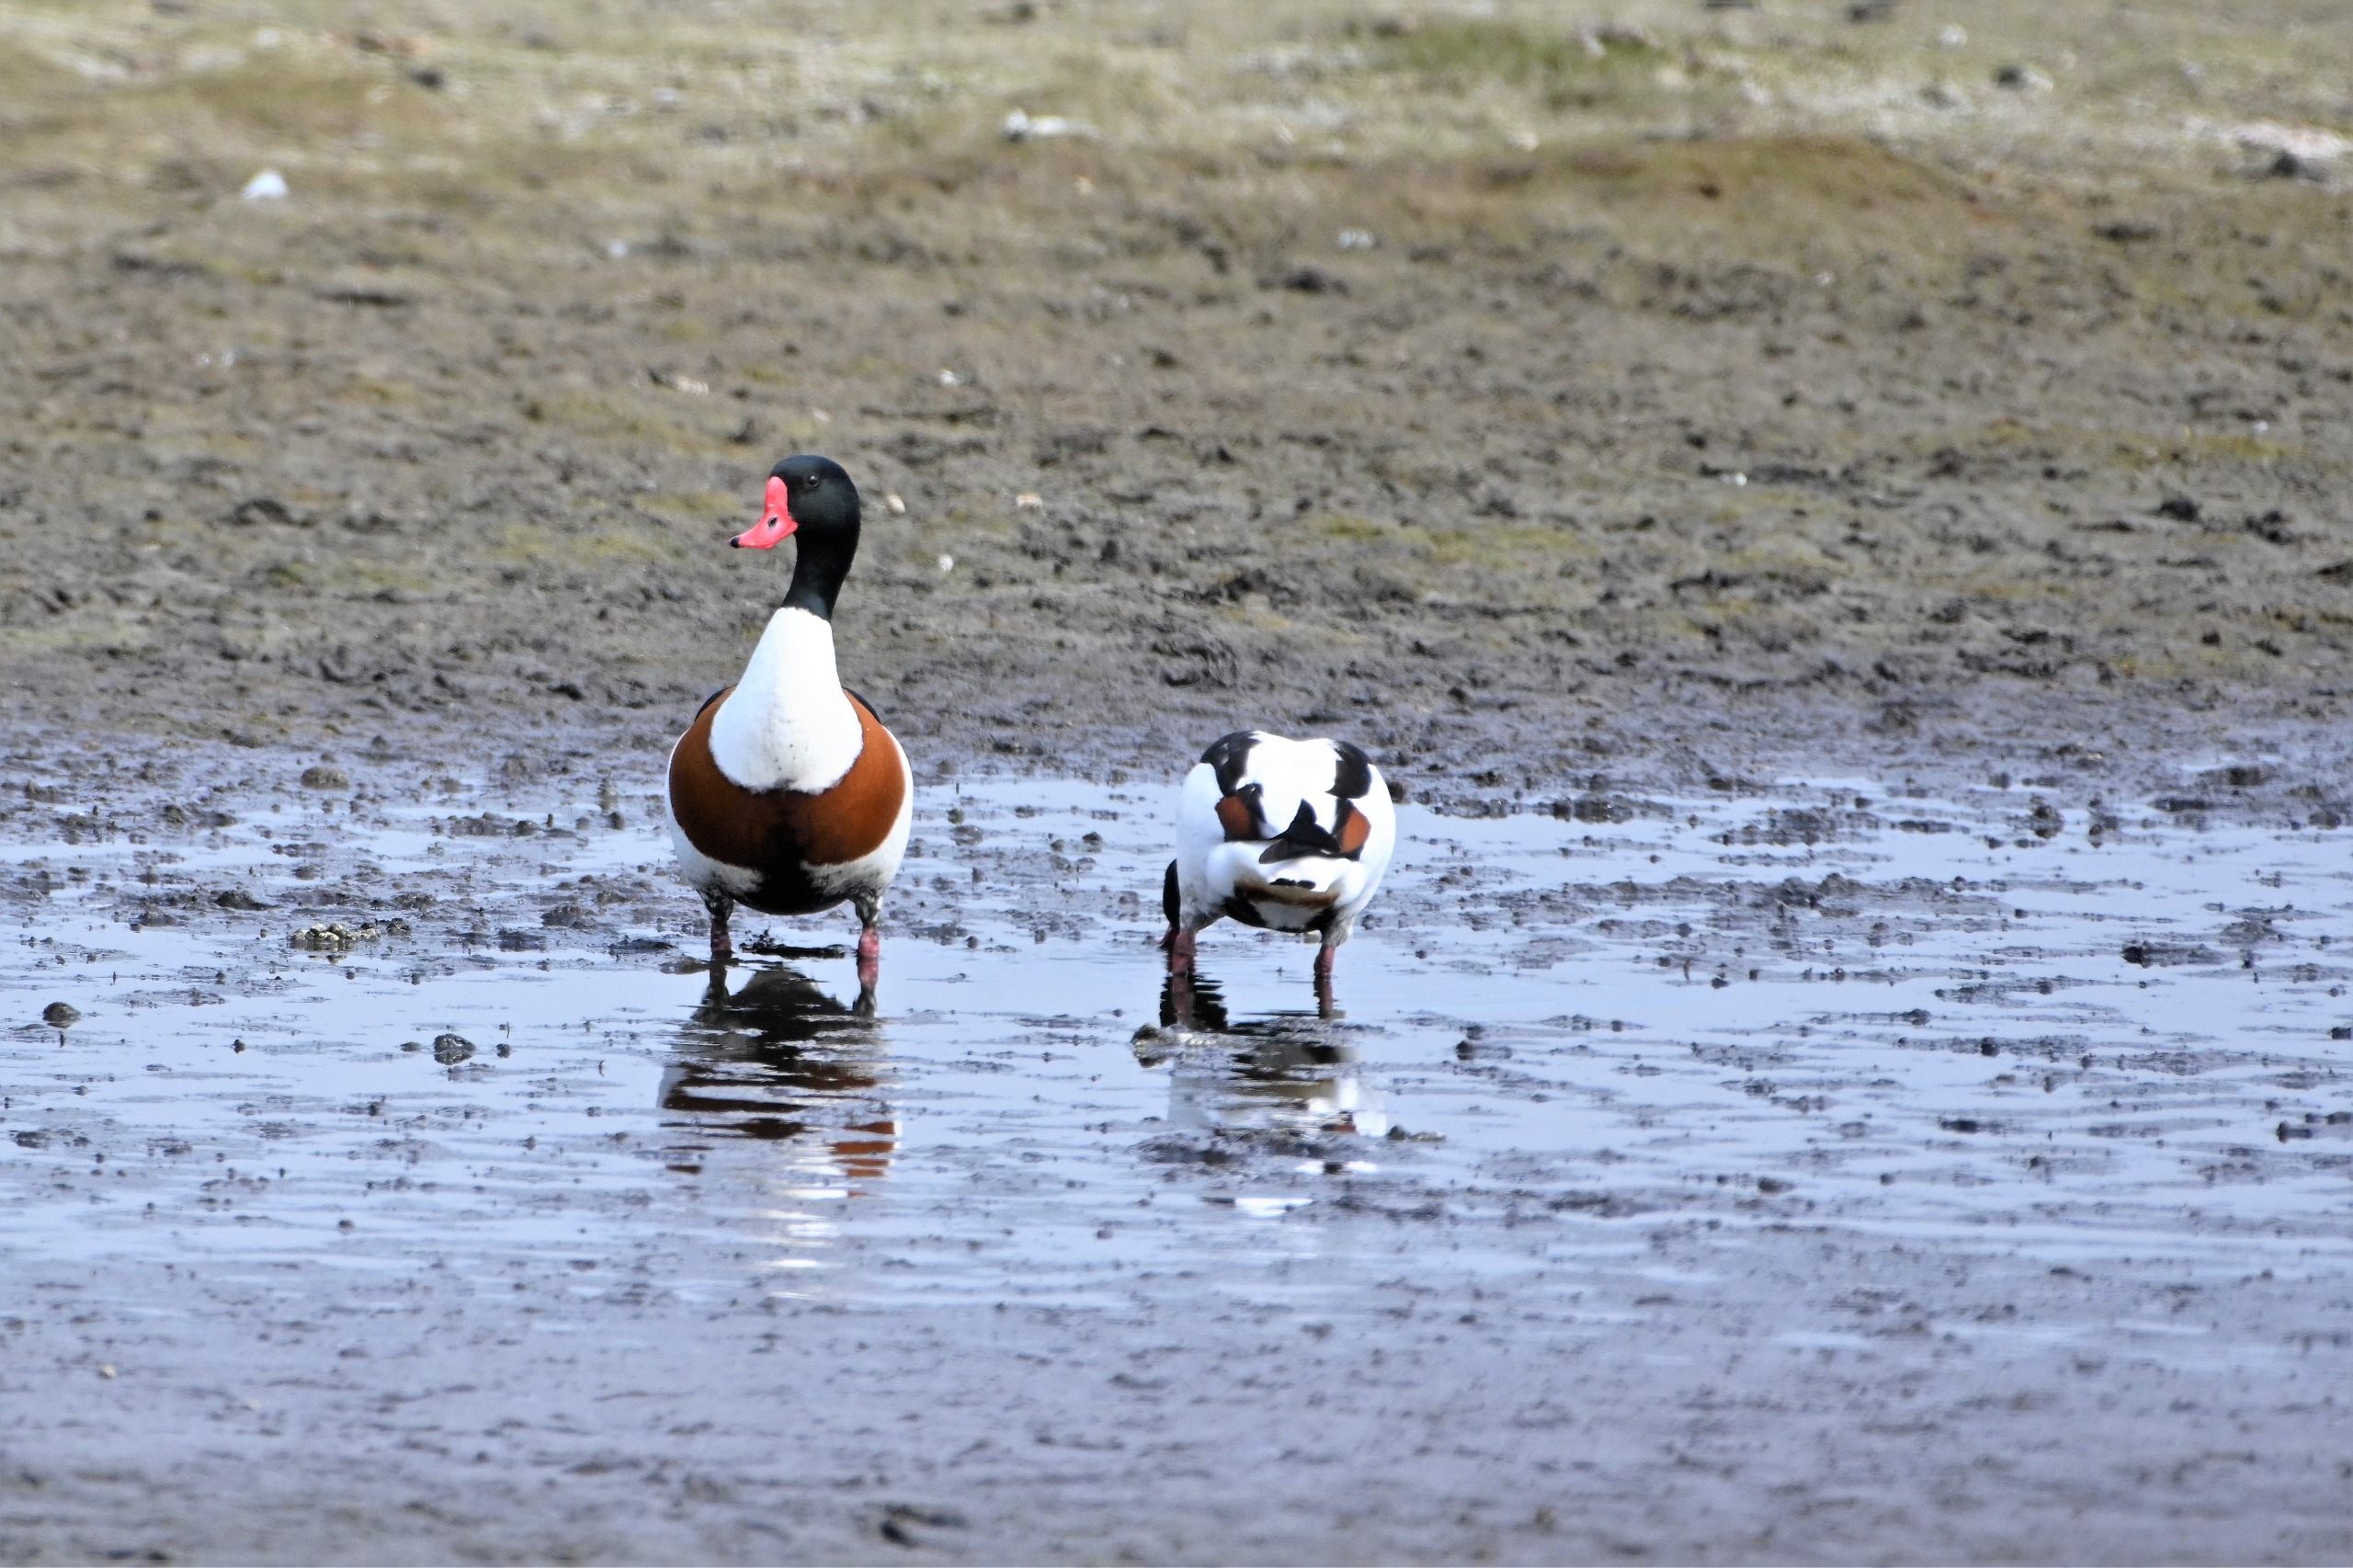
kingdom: Animalia
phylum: Chordata
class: Aves
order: Anseriformes
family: Anatidae
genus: Tadorna
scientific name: Tadorna tadorna
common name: Gravand
